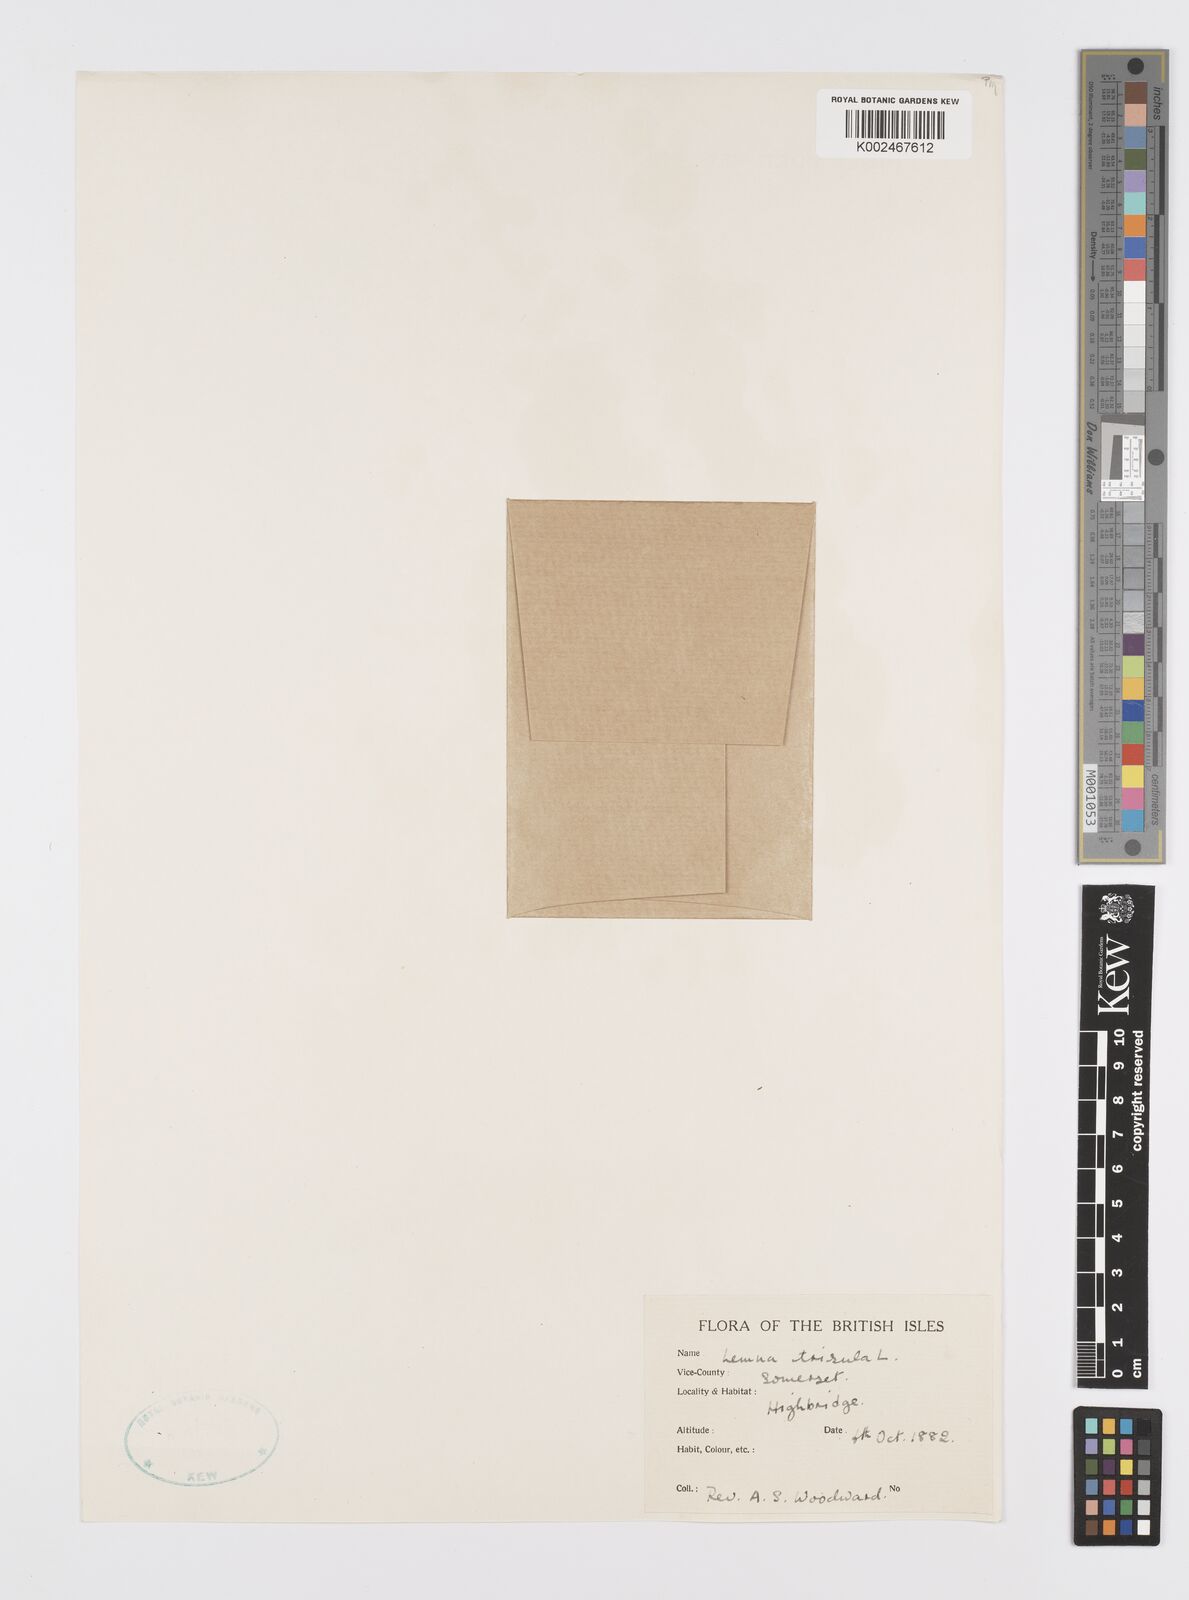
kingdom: Plantae
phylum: Tracheophyta
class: Liliopsida
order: Alismatales
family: Araceae
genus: Lemna
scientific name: Lemna trisulca
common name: Ivy-leaved duckweed
